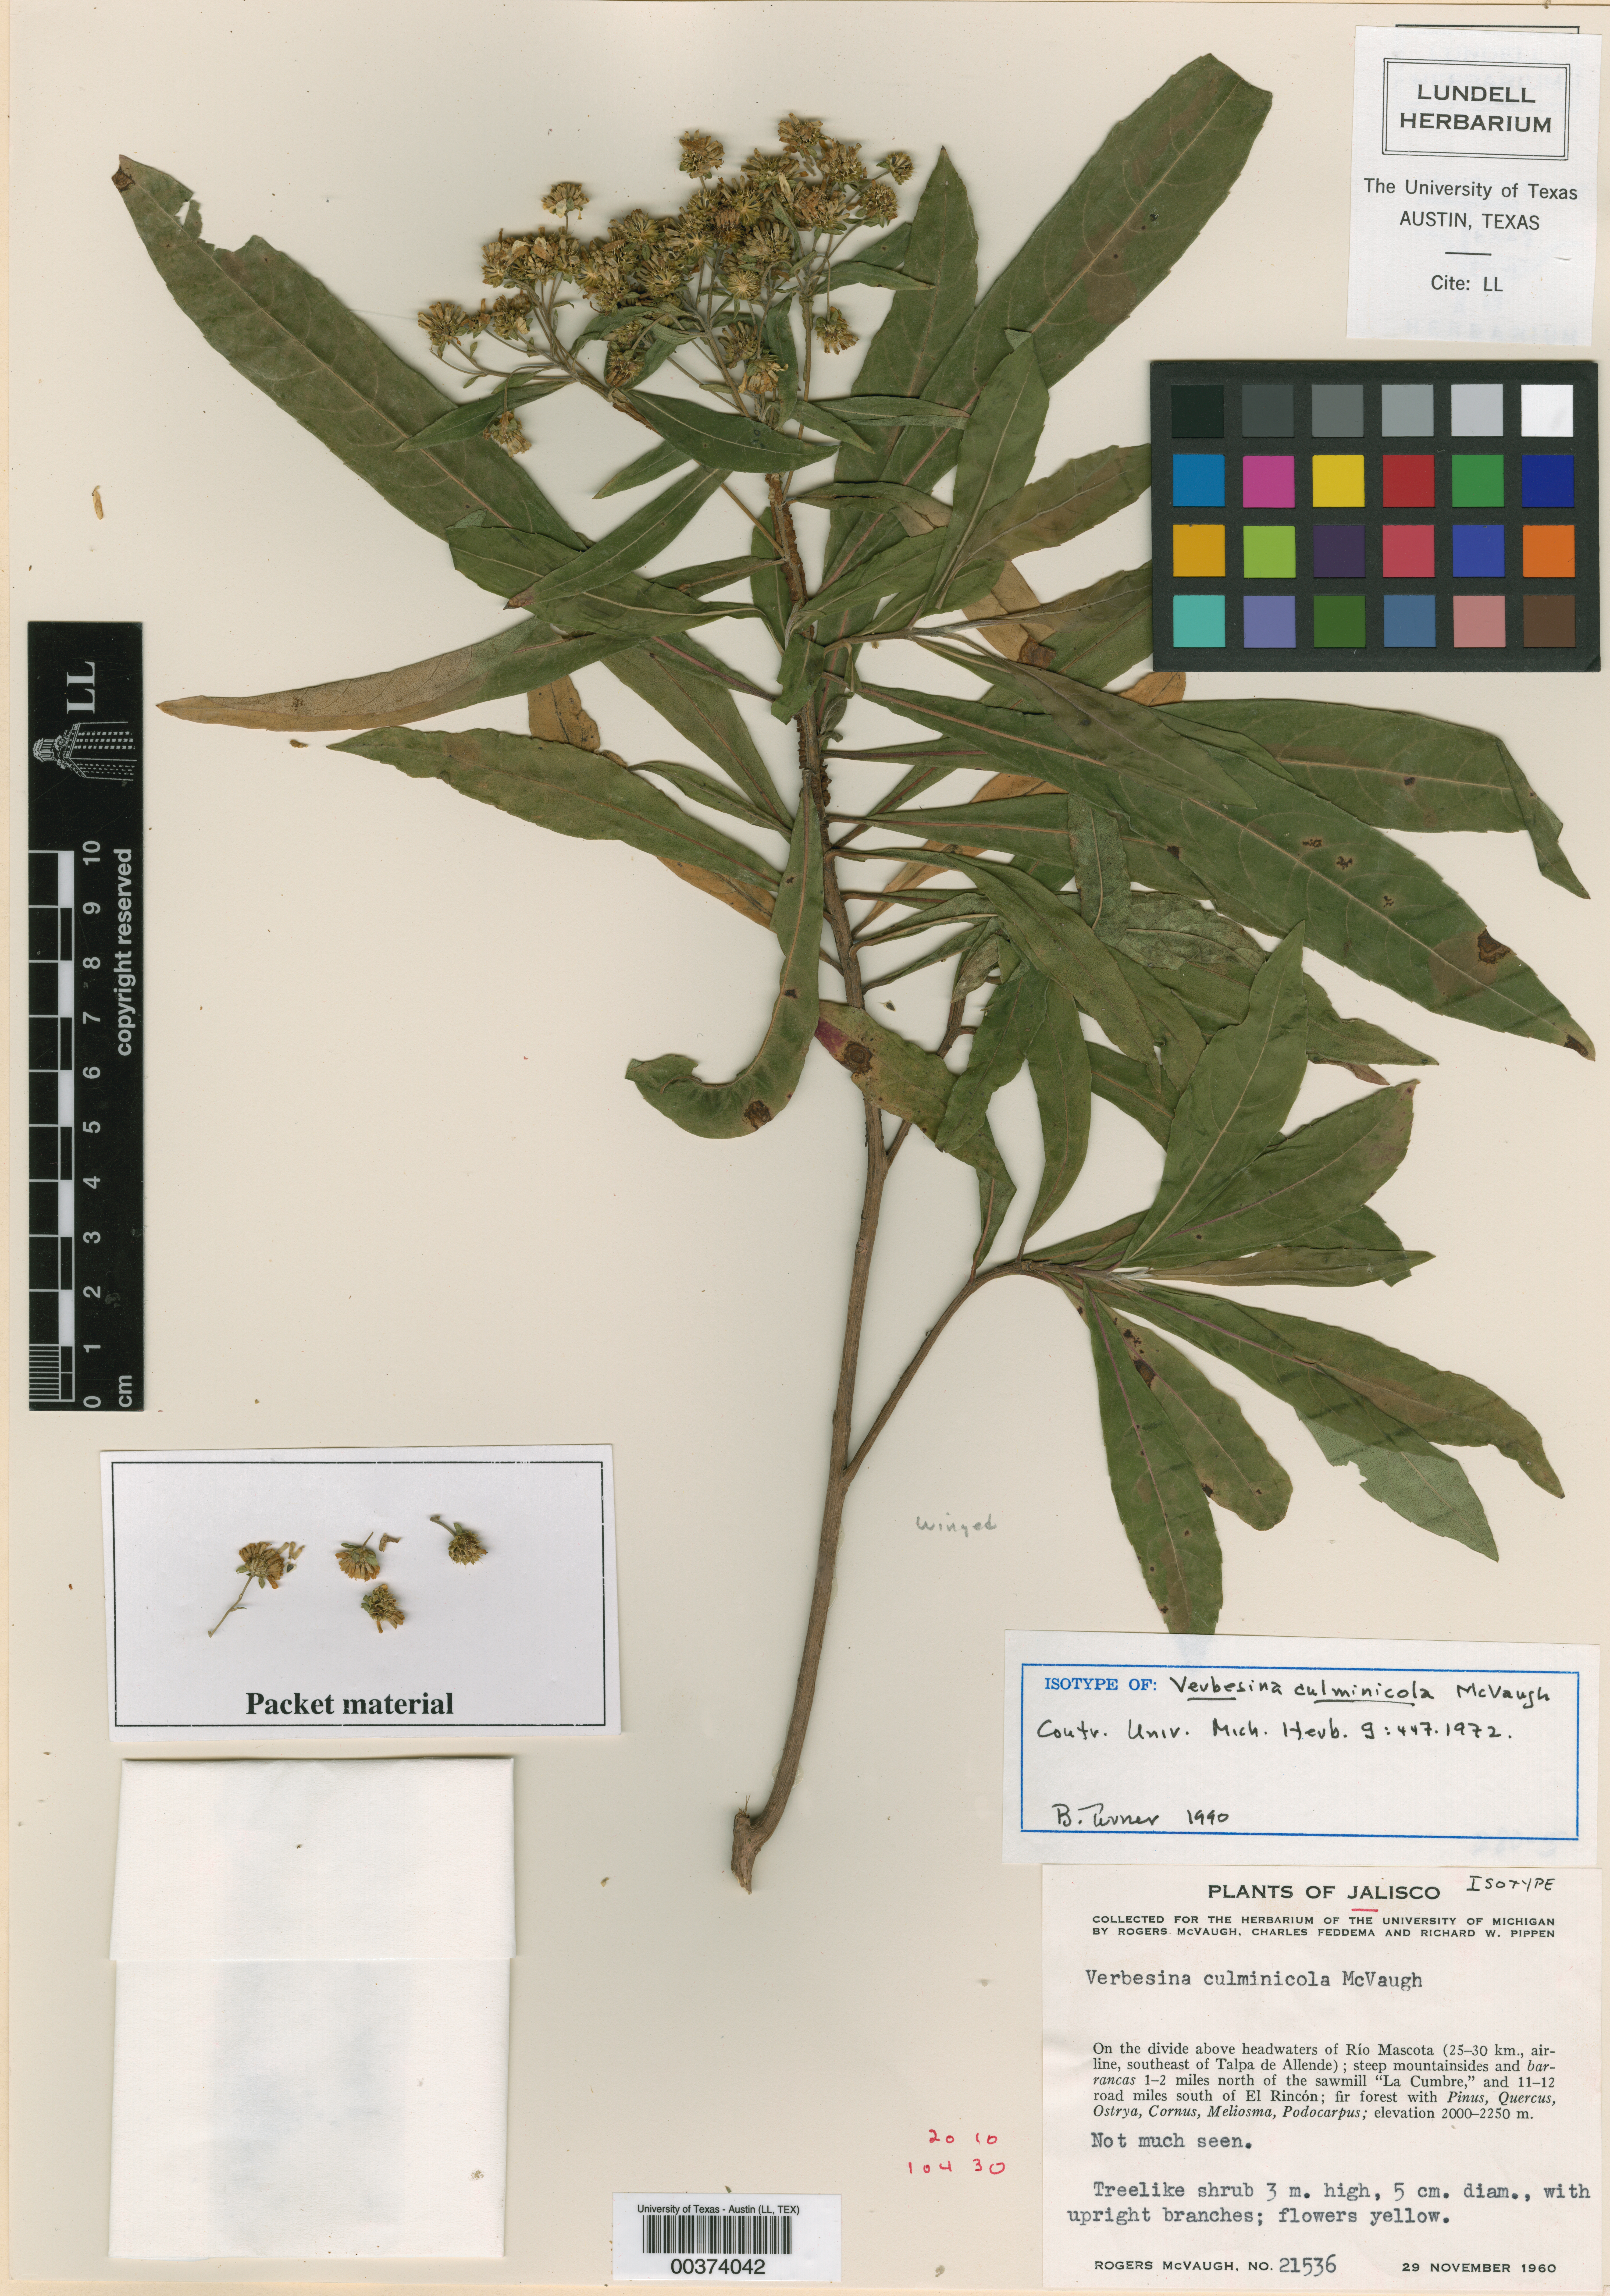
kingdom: Plantae
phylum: Tracheophyta
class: Magnoliopsida
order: Asterales
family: Asteraceae
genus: Verbesina
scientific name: Verbesina culminicola
